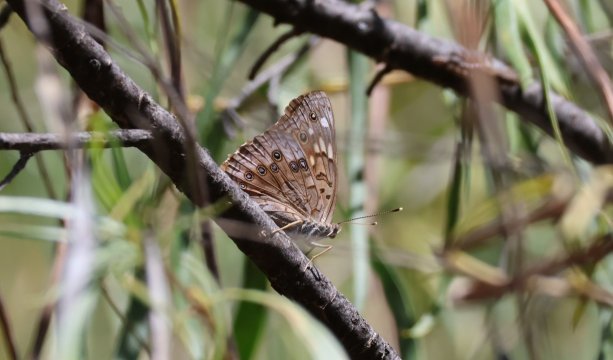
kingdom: Animalia
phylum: Arthropoda
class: Insecta
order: Lepidoptera
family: Pieridae
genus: Pontia
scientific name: Pontia protodice
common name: Checkered White
